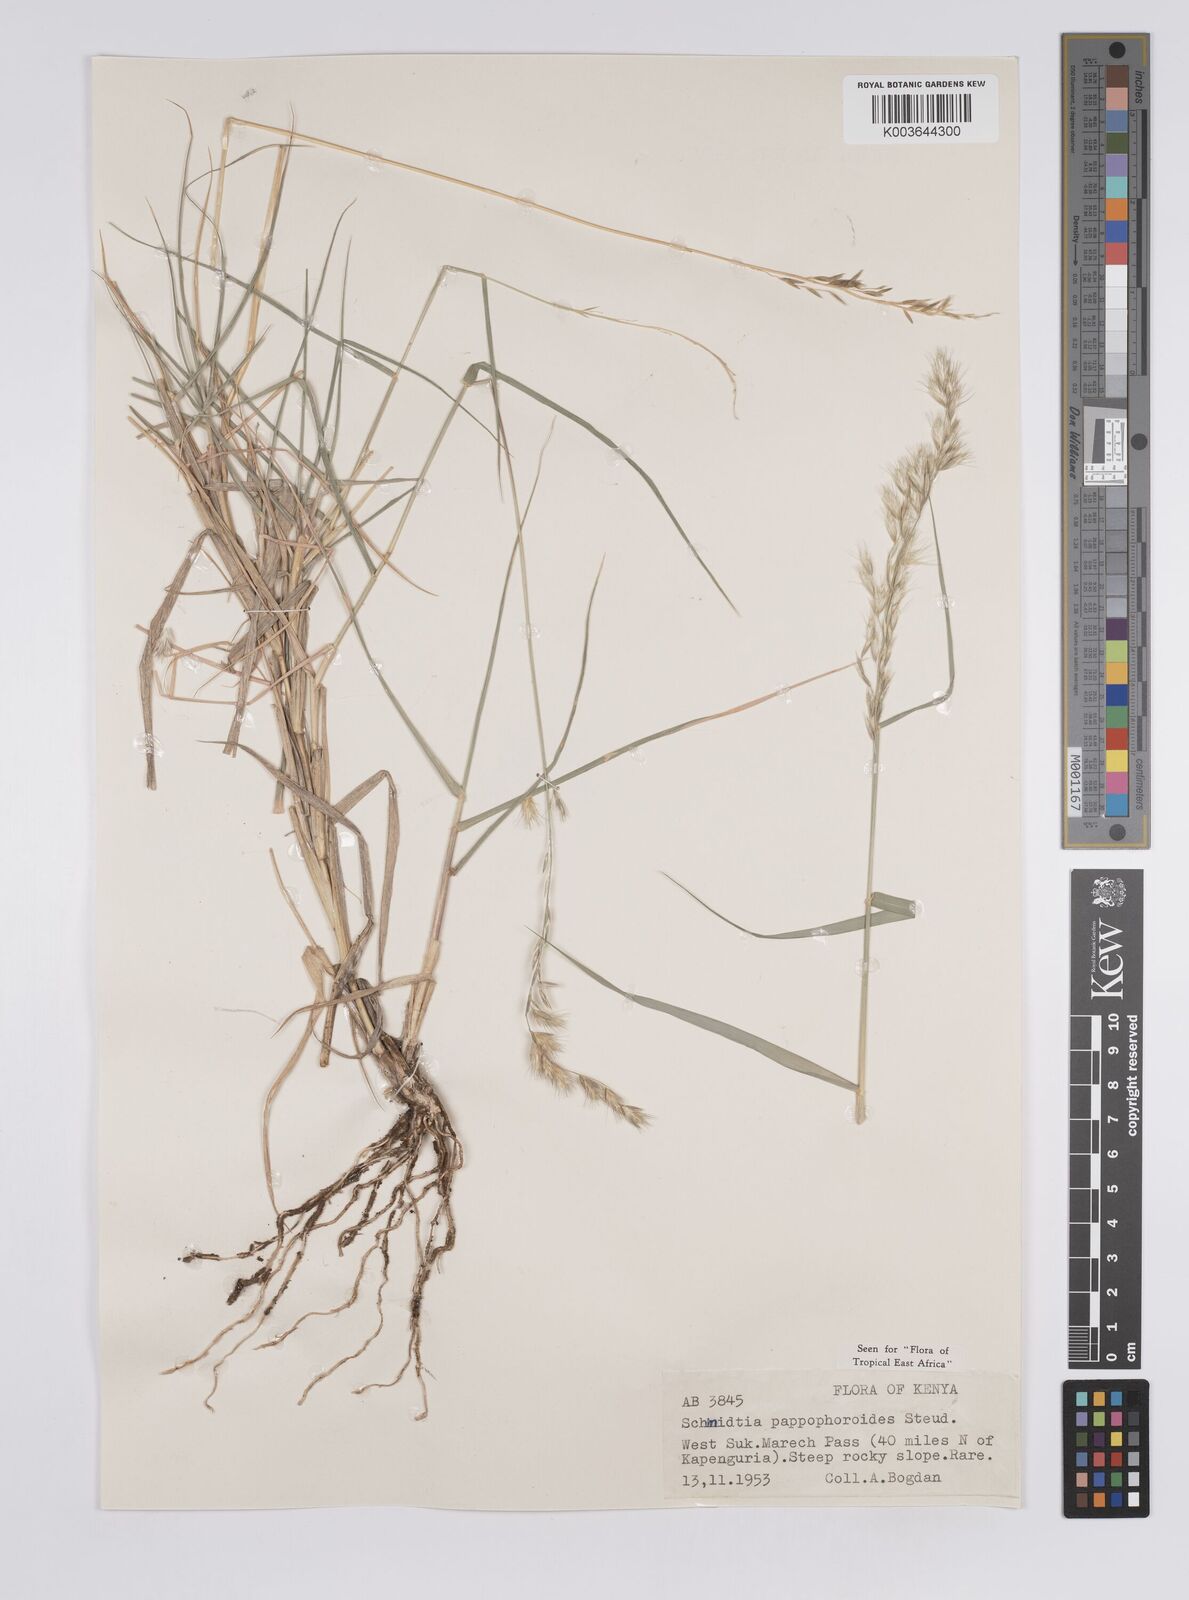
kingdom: Plantae
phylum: Tracheophyta
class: Liliopsida
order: Poales
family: Poaceae
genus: Schmidtia
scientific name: Schmidtia pappophoroides
